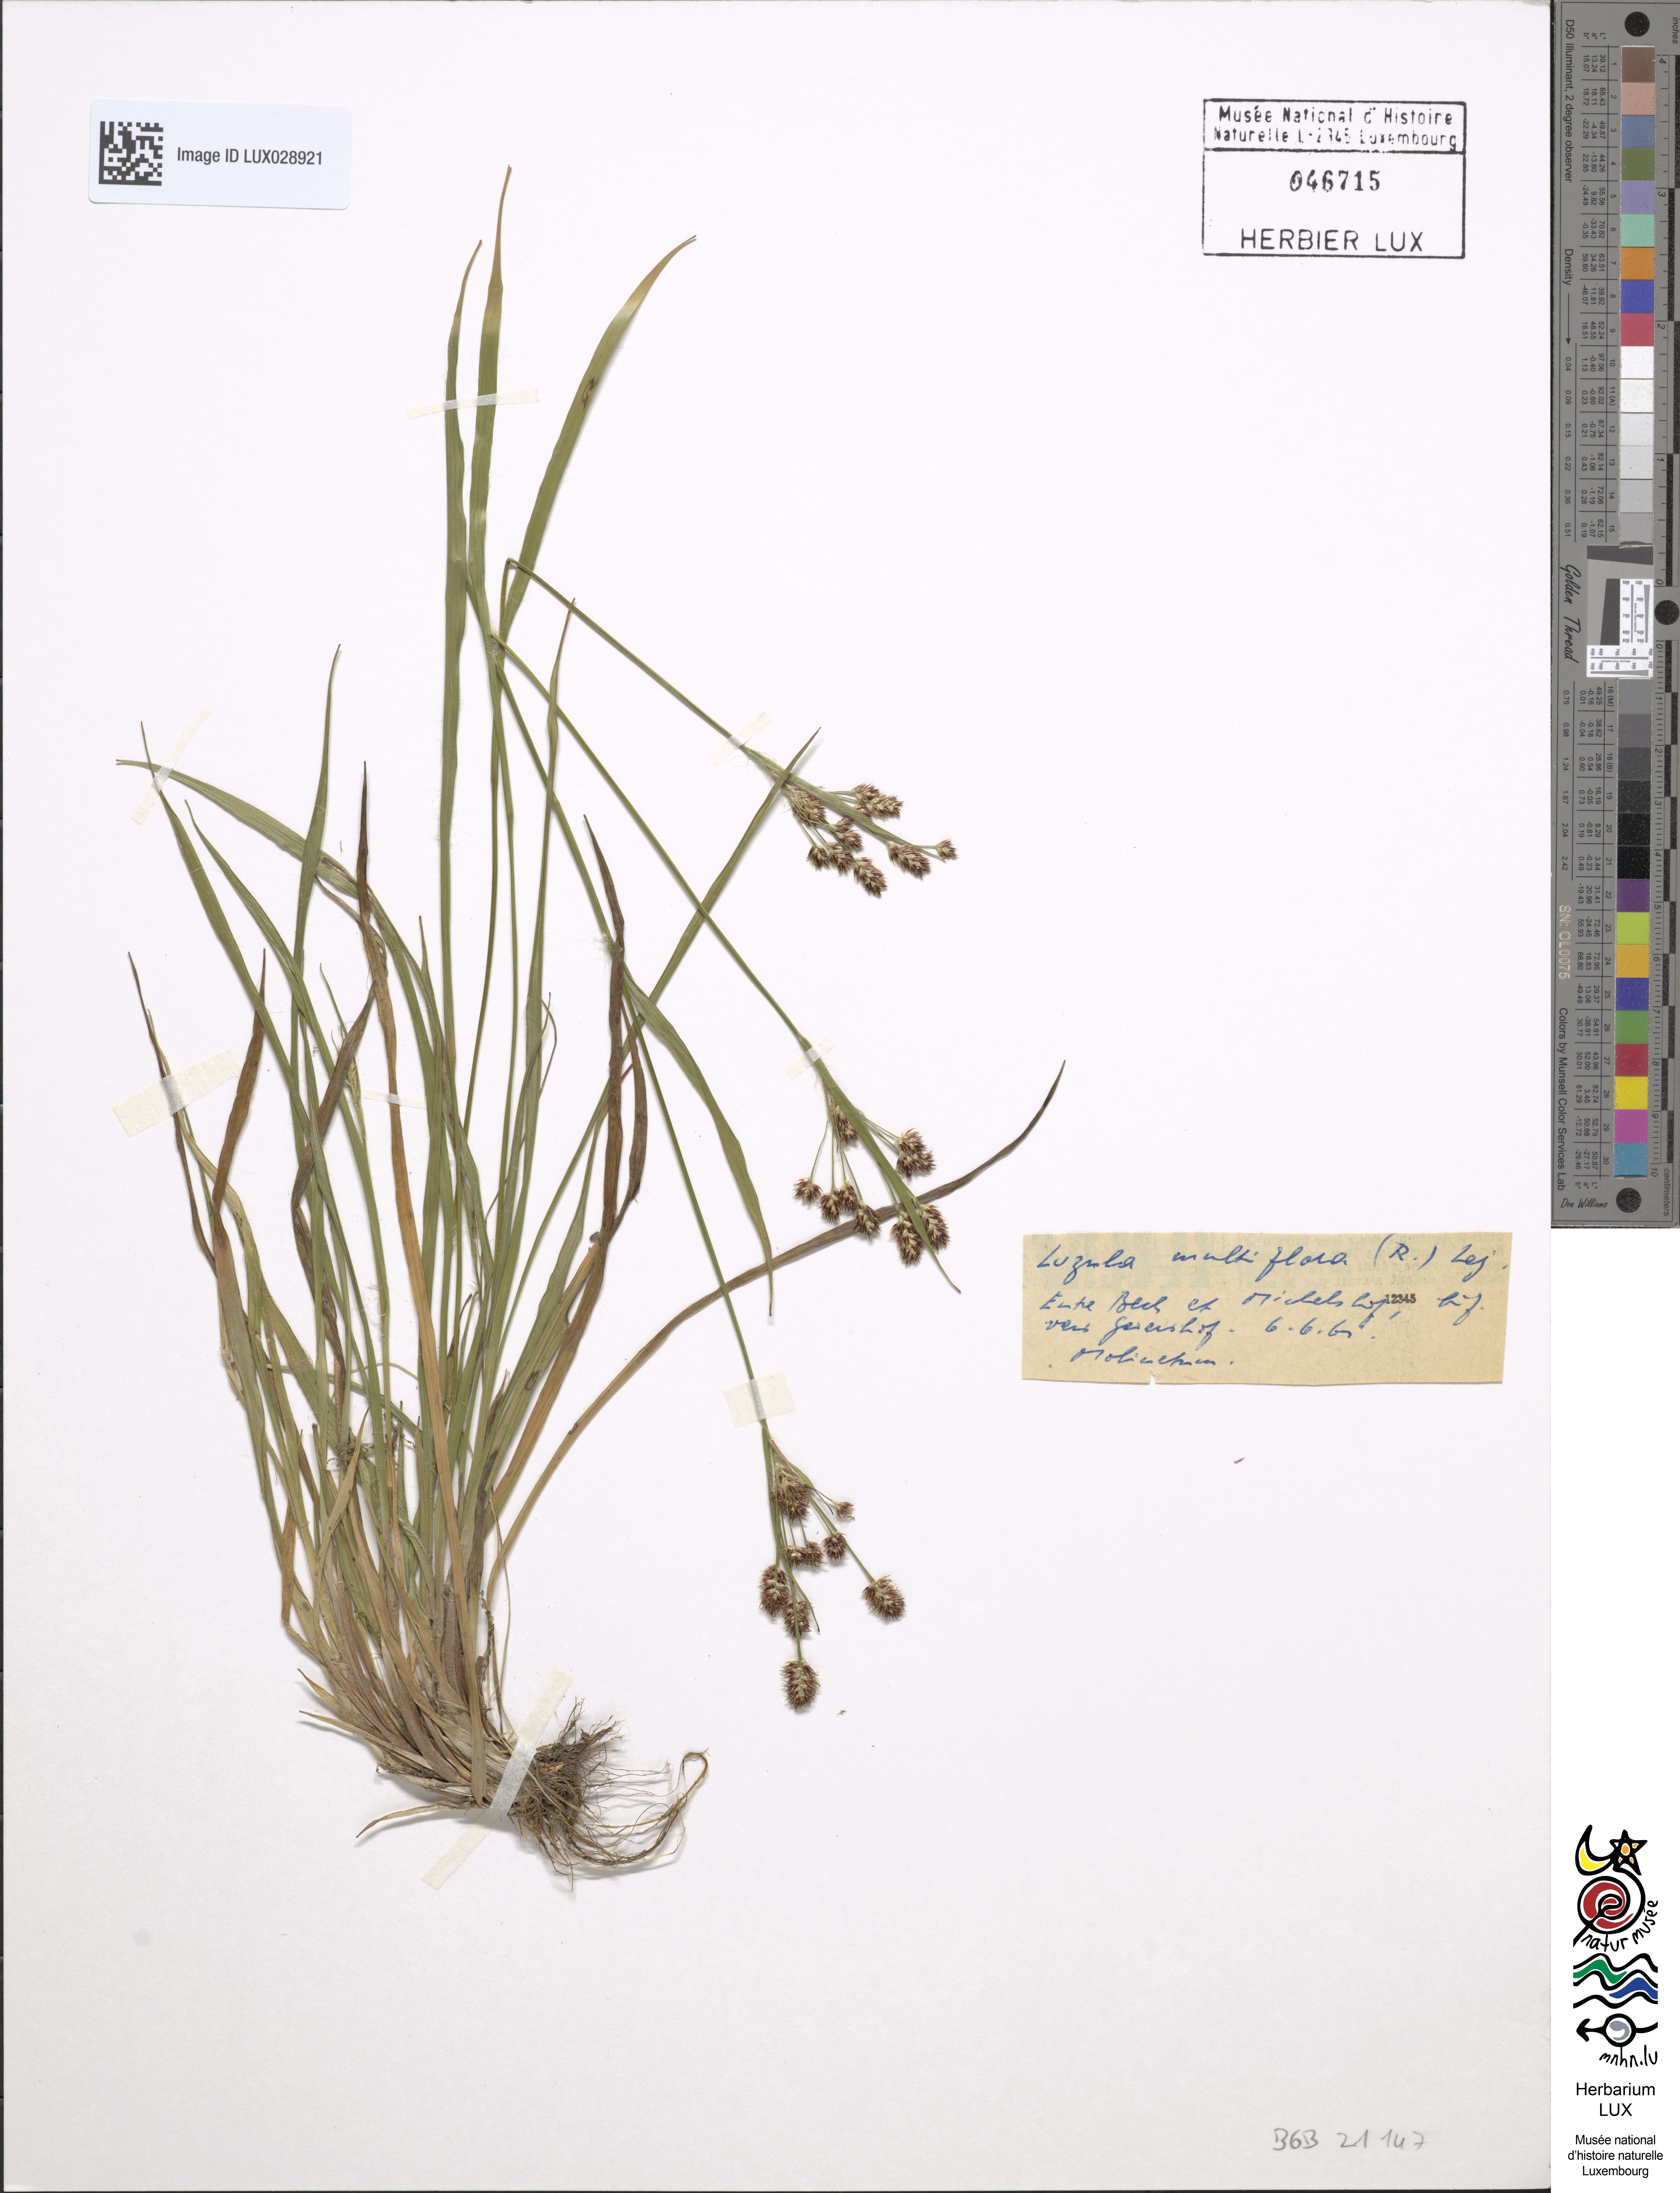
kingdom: Plantae
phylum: Tracheophyta
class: Liliopsida
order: Poales
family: Juncaceae
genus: Luzula
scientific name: Luzula multiflora
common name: Heath wood-rush
